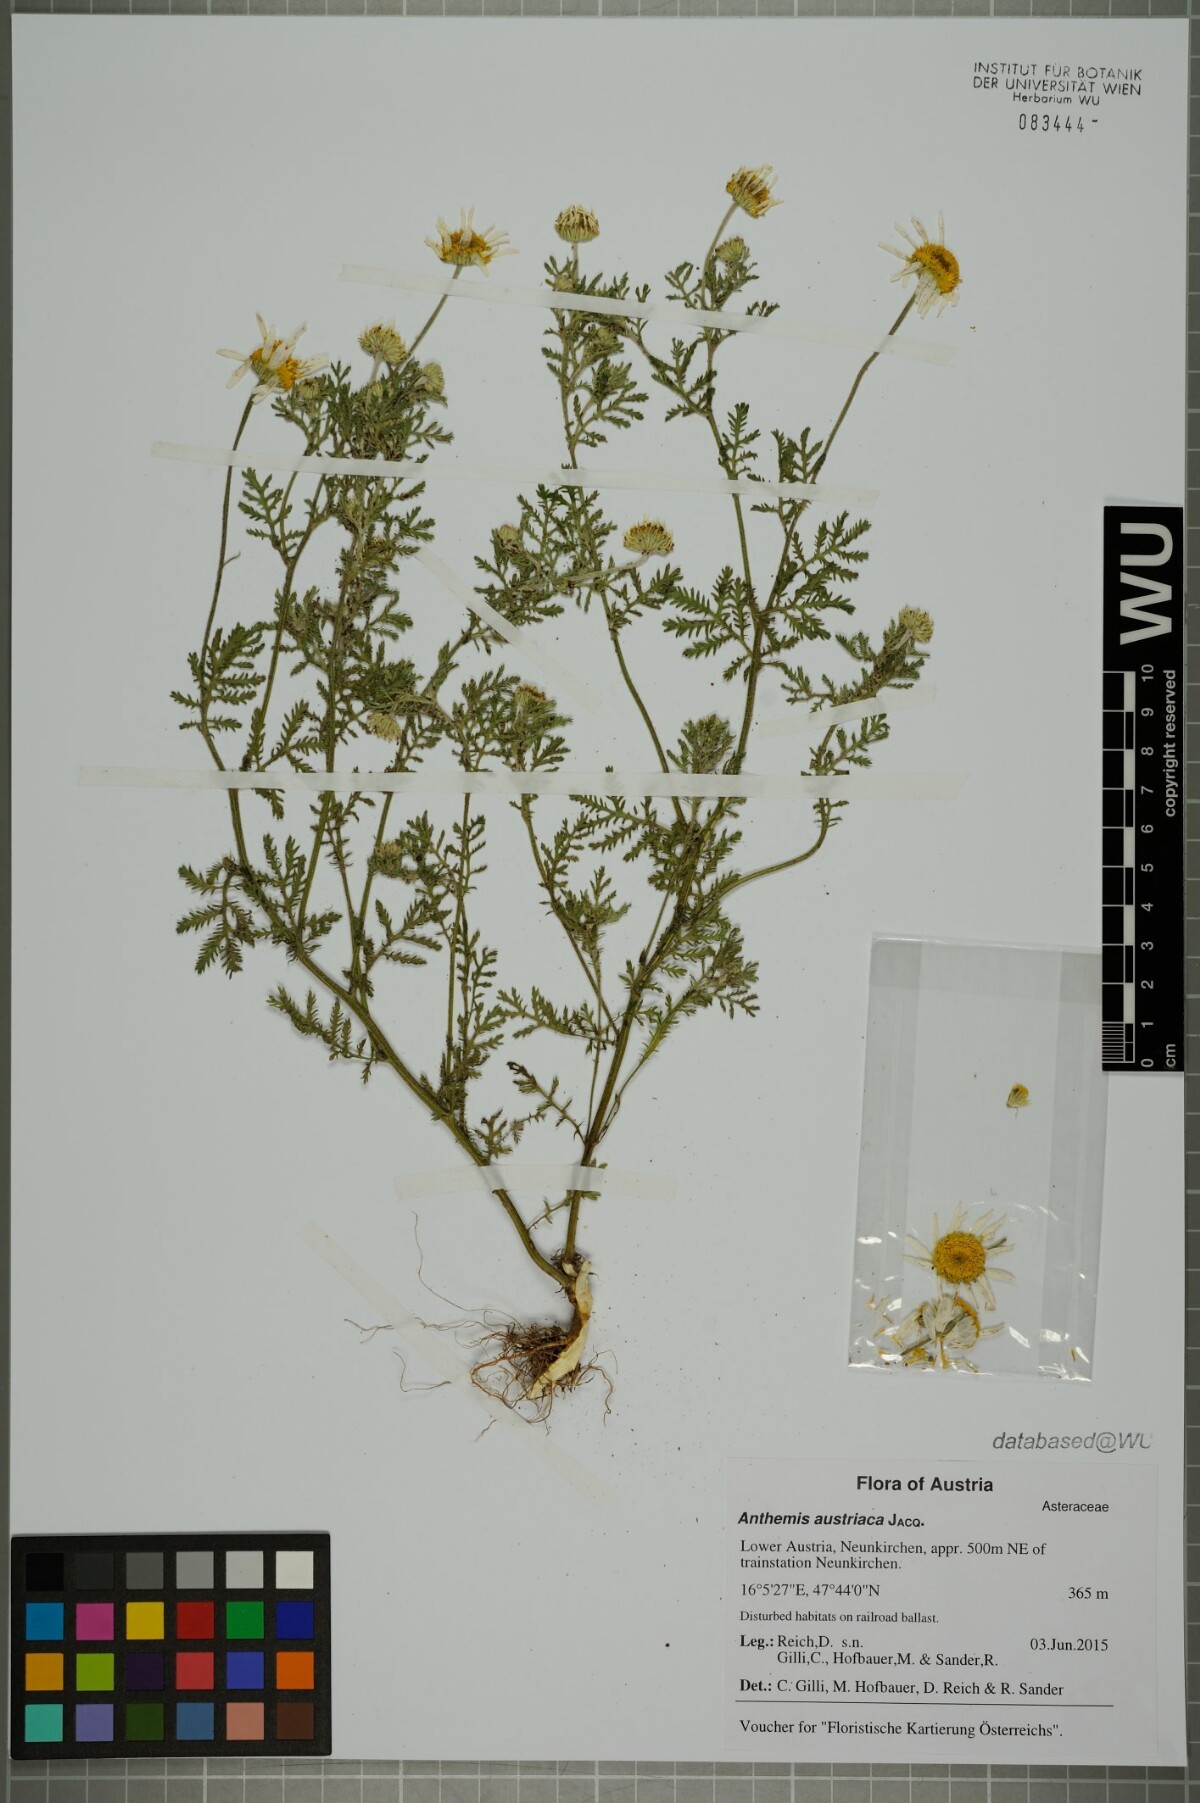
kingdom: Plantae
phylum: Tracheophyta
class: Magnoliopsida
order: Asterales
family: Asteraceae
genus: Cota
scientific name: Cota austriaca
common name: Austrian chamomile
